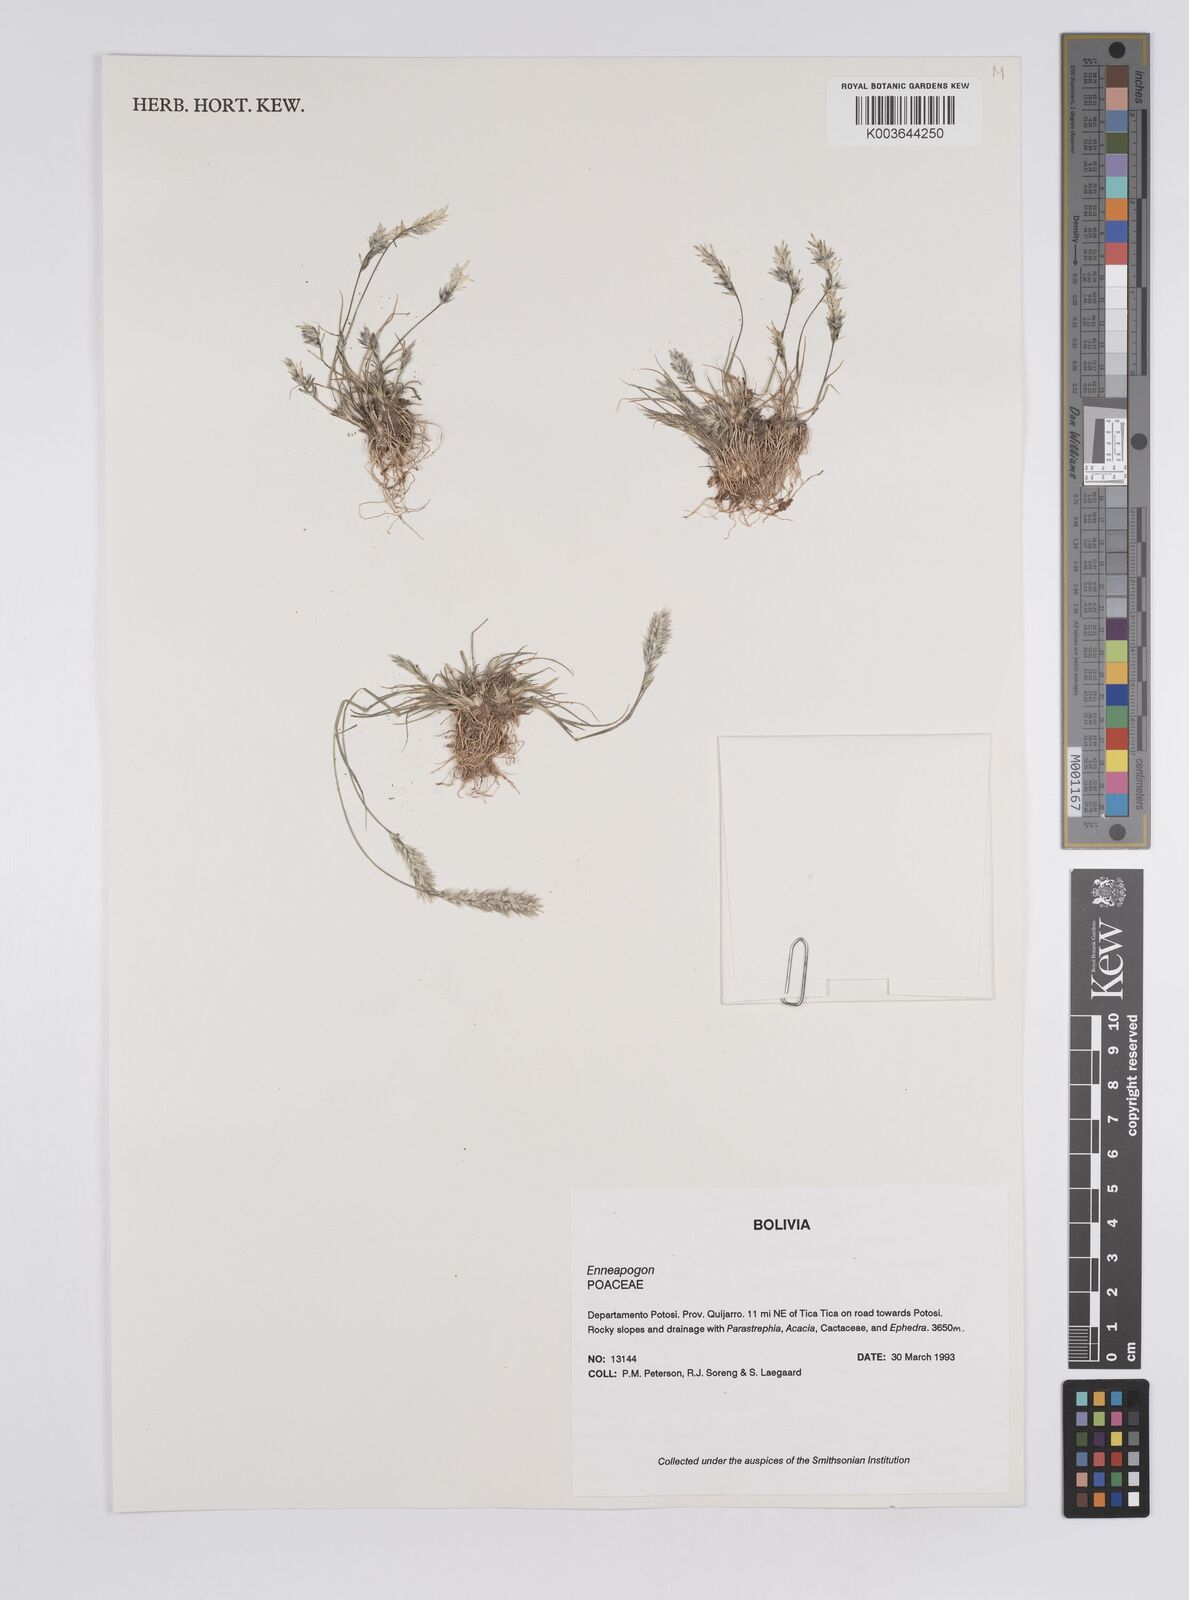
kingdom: Plantae
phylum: Tracheophyta
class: Liliopsida
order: Poales
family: Poaceae
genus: Enneapogon
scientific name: Enneapogon desvauxii
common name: Feather pappus grass
